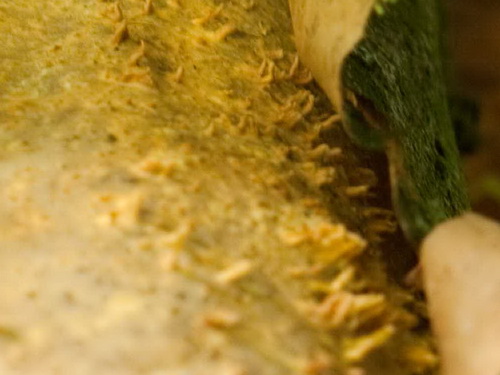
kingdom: Fungi
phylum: Basidiomycota
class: Agaricomycetes
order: Russulales
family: Peniophoraceae
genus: Peniophora
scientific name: Peniophora laeta
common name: tandet voksskind
